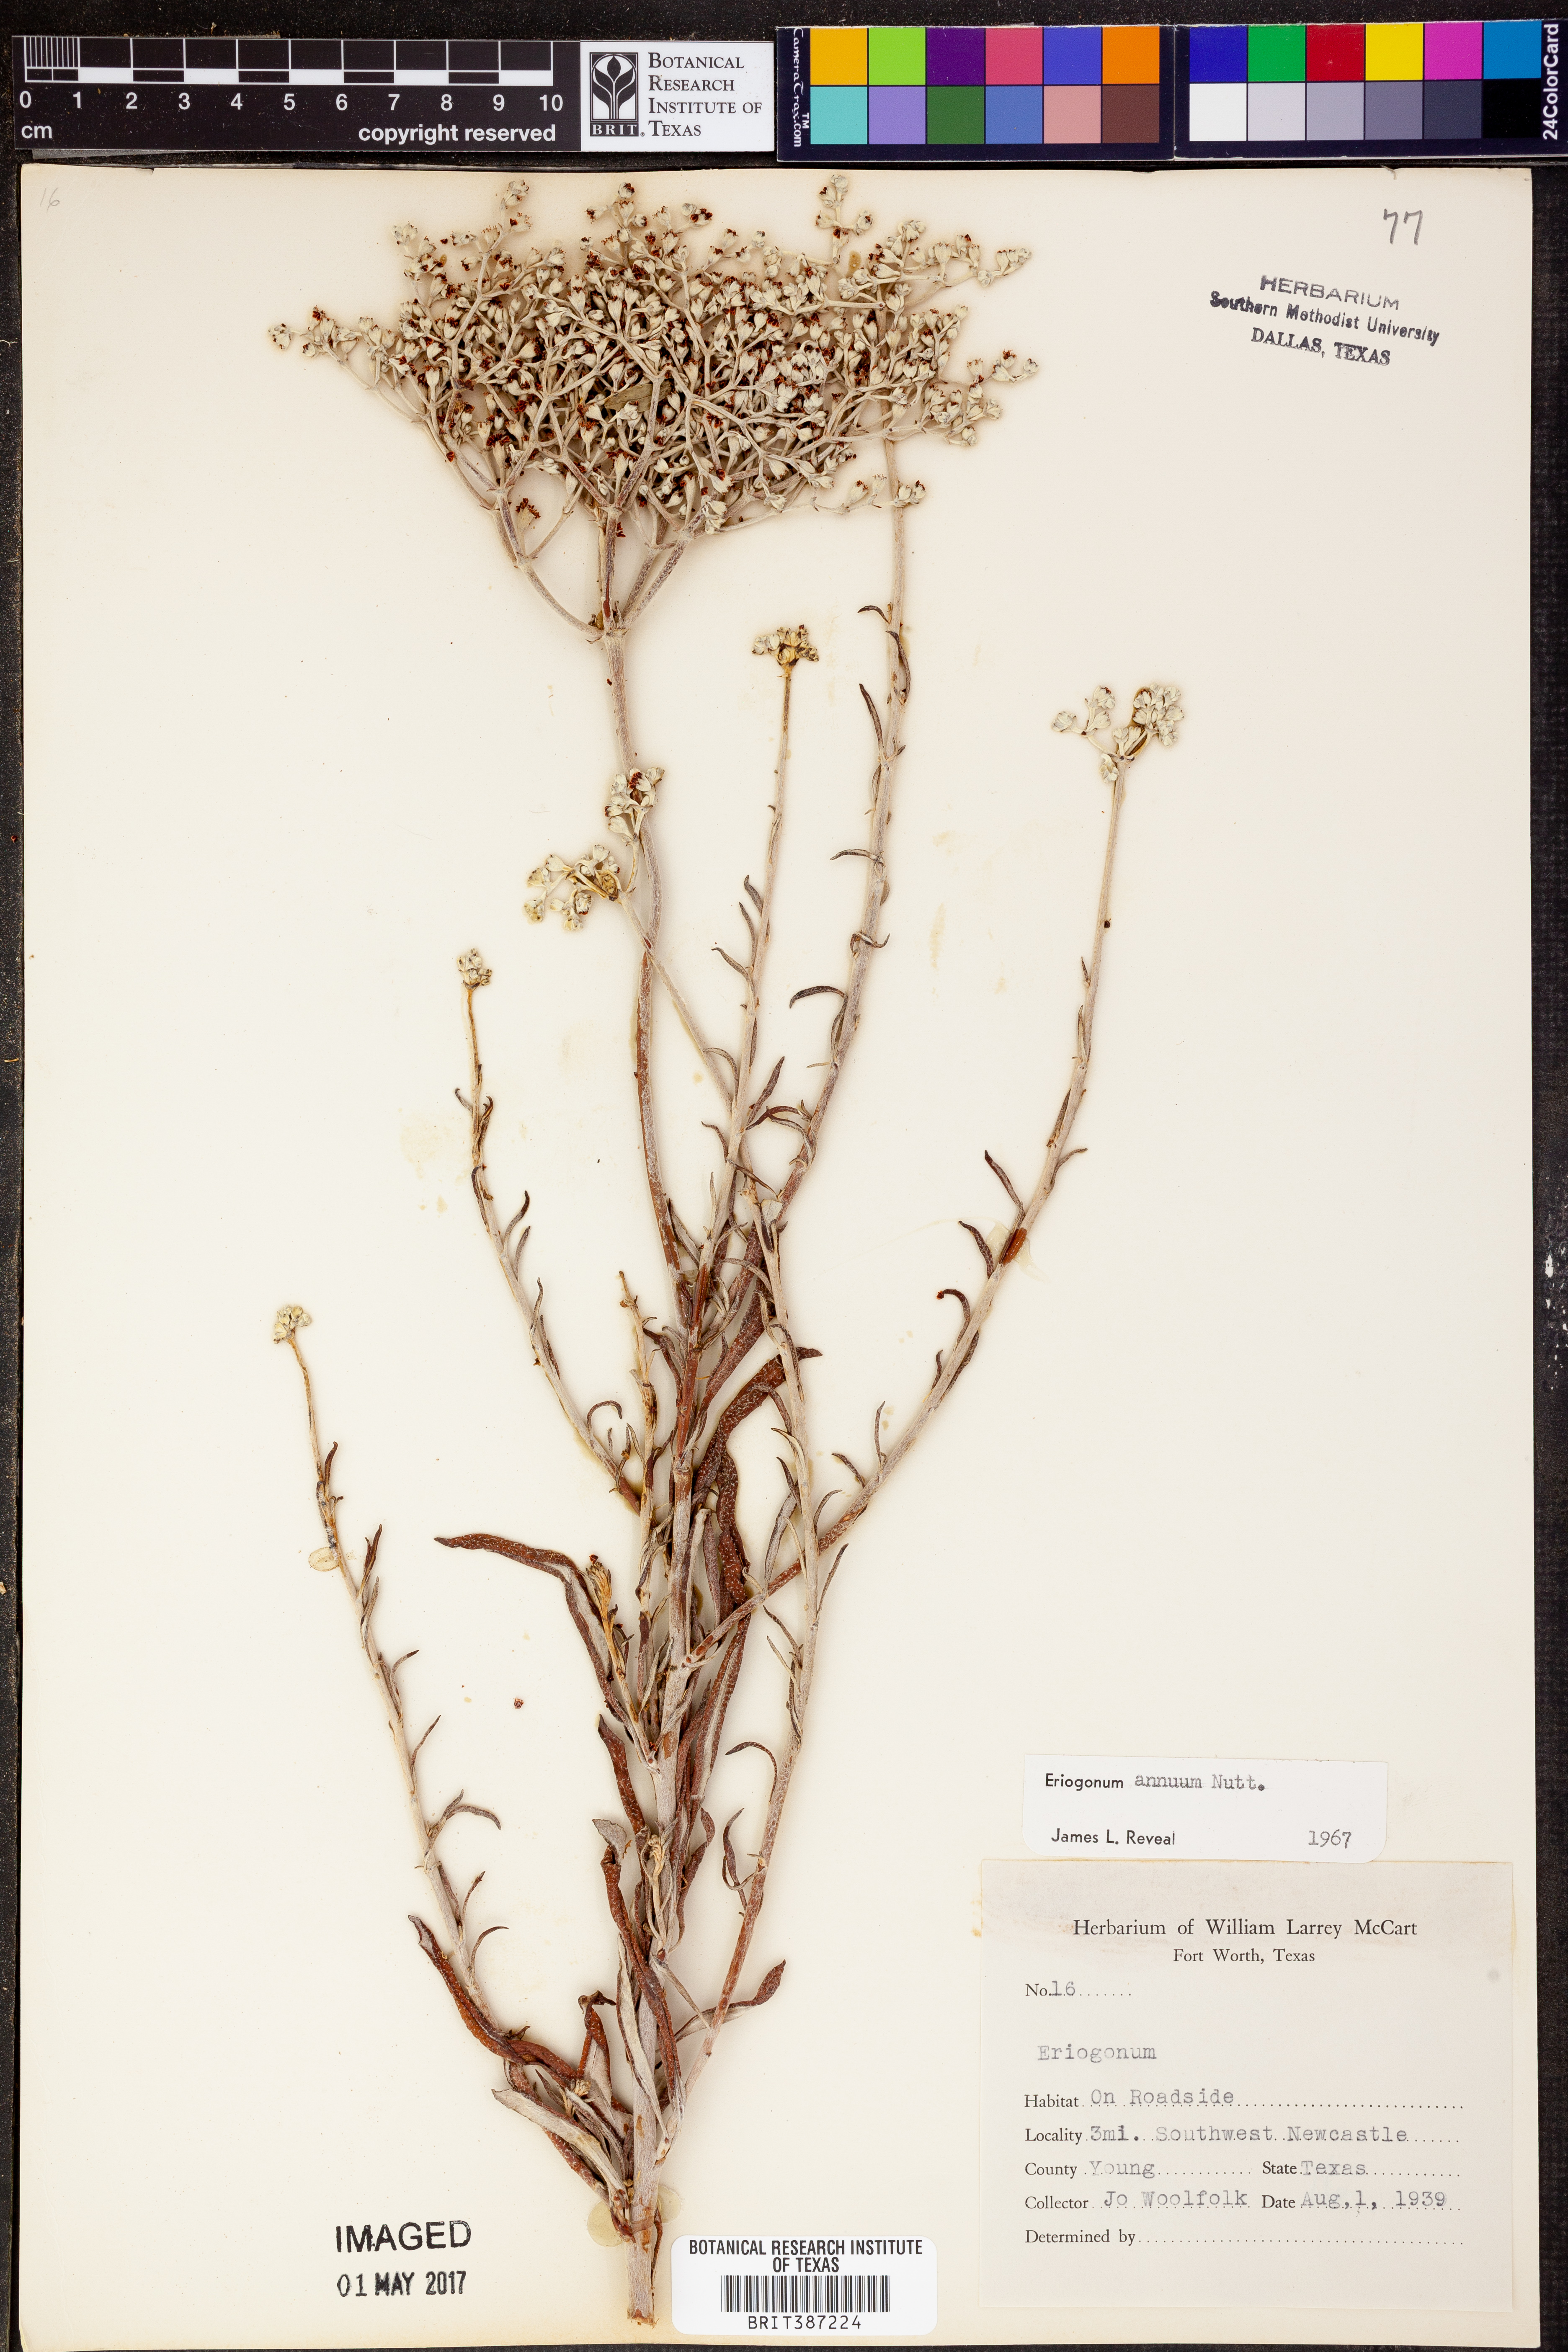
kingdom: Plantae
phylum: Tracheophyta
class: Magnoliopsida
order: Caryophyllales
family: Polygonaceae
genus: Eriogonum
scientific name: Eriogonum annuum
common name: Annual wild buckwheat
